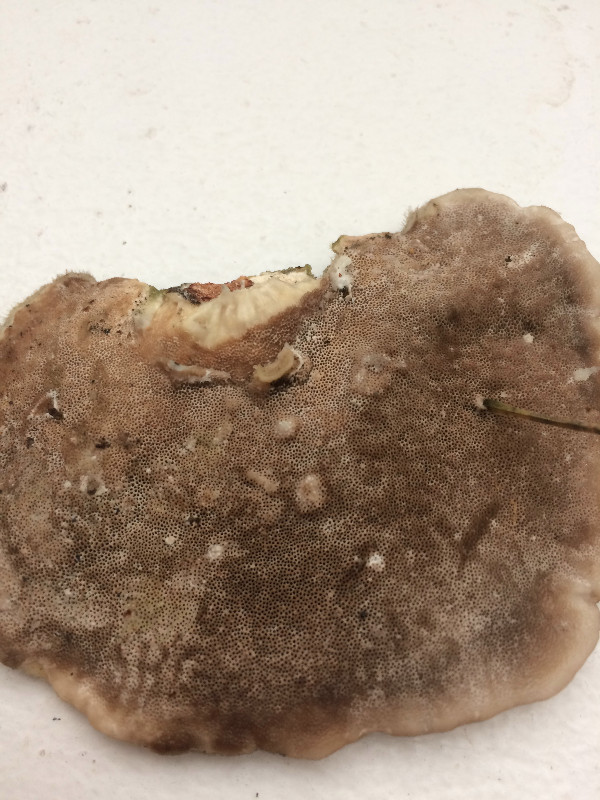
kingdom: Fungi
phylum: Basidiomycota
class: Agaricomycetes
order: Polyporales
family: Polyporaceae
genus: Trametes
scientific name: Trametes hirsuta
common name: håret læderporesvamp
